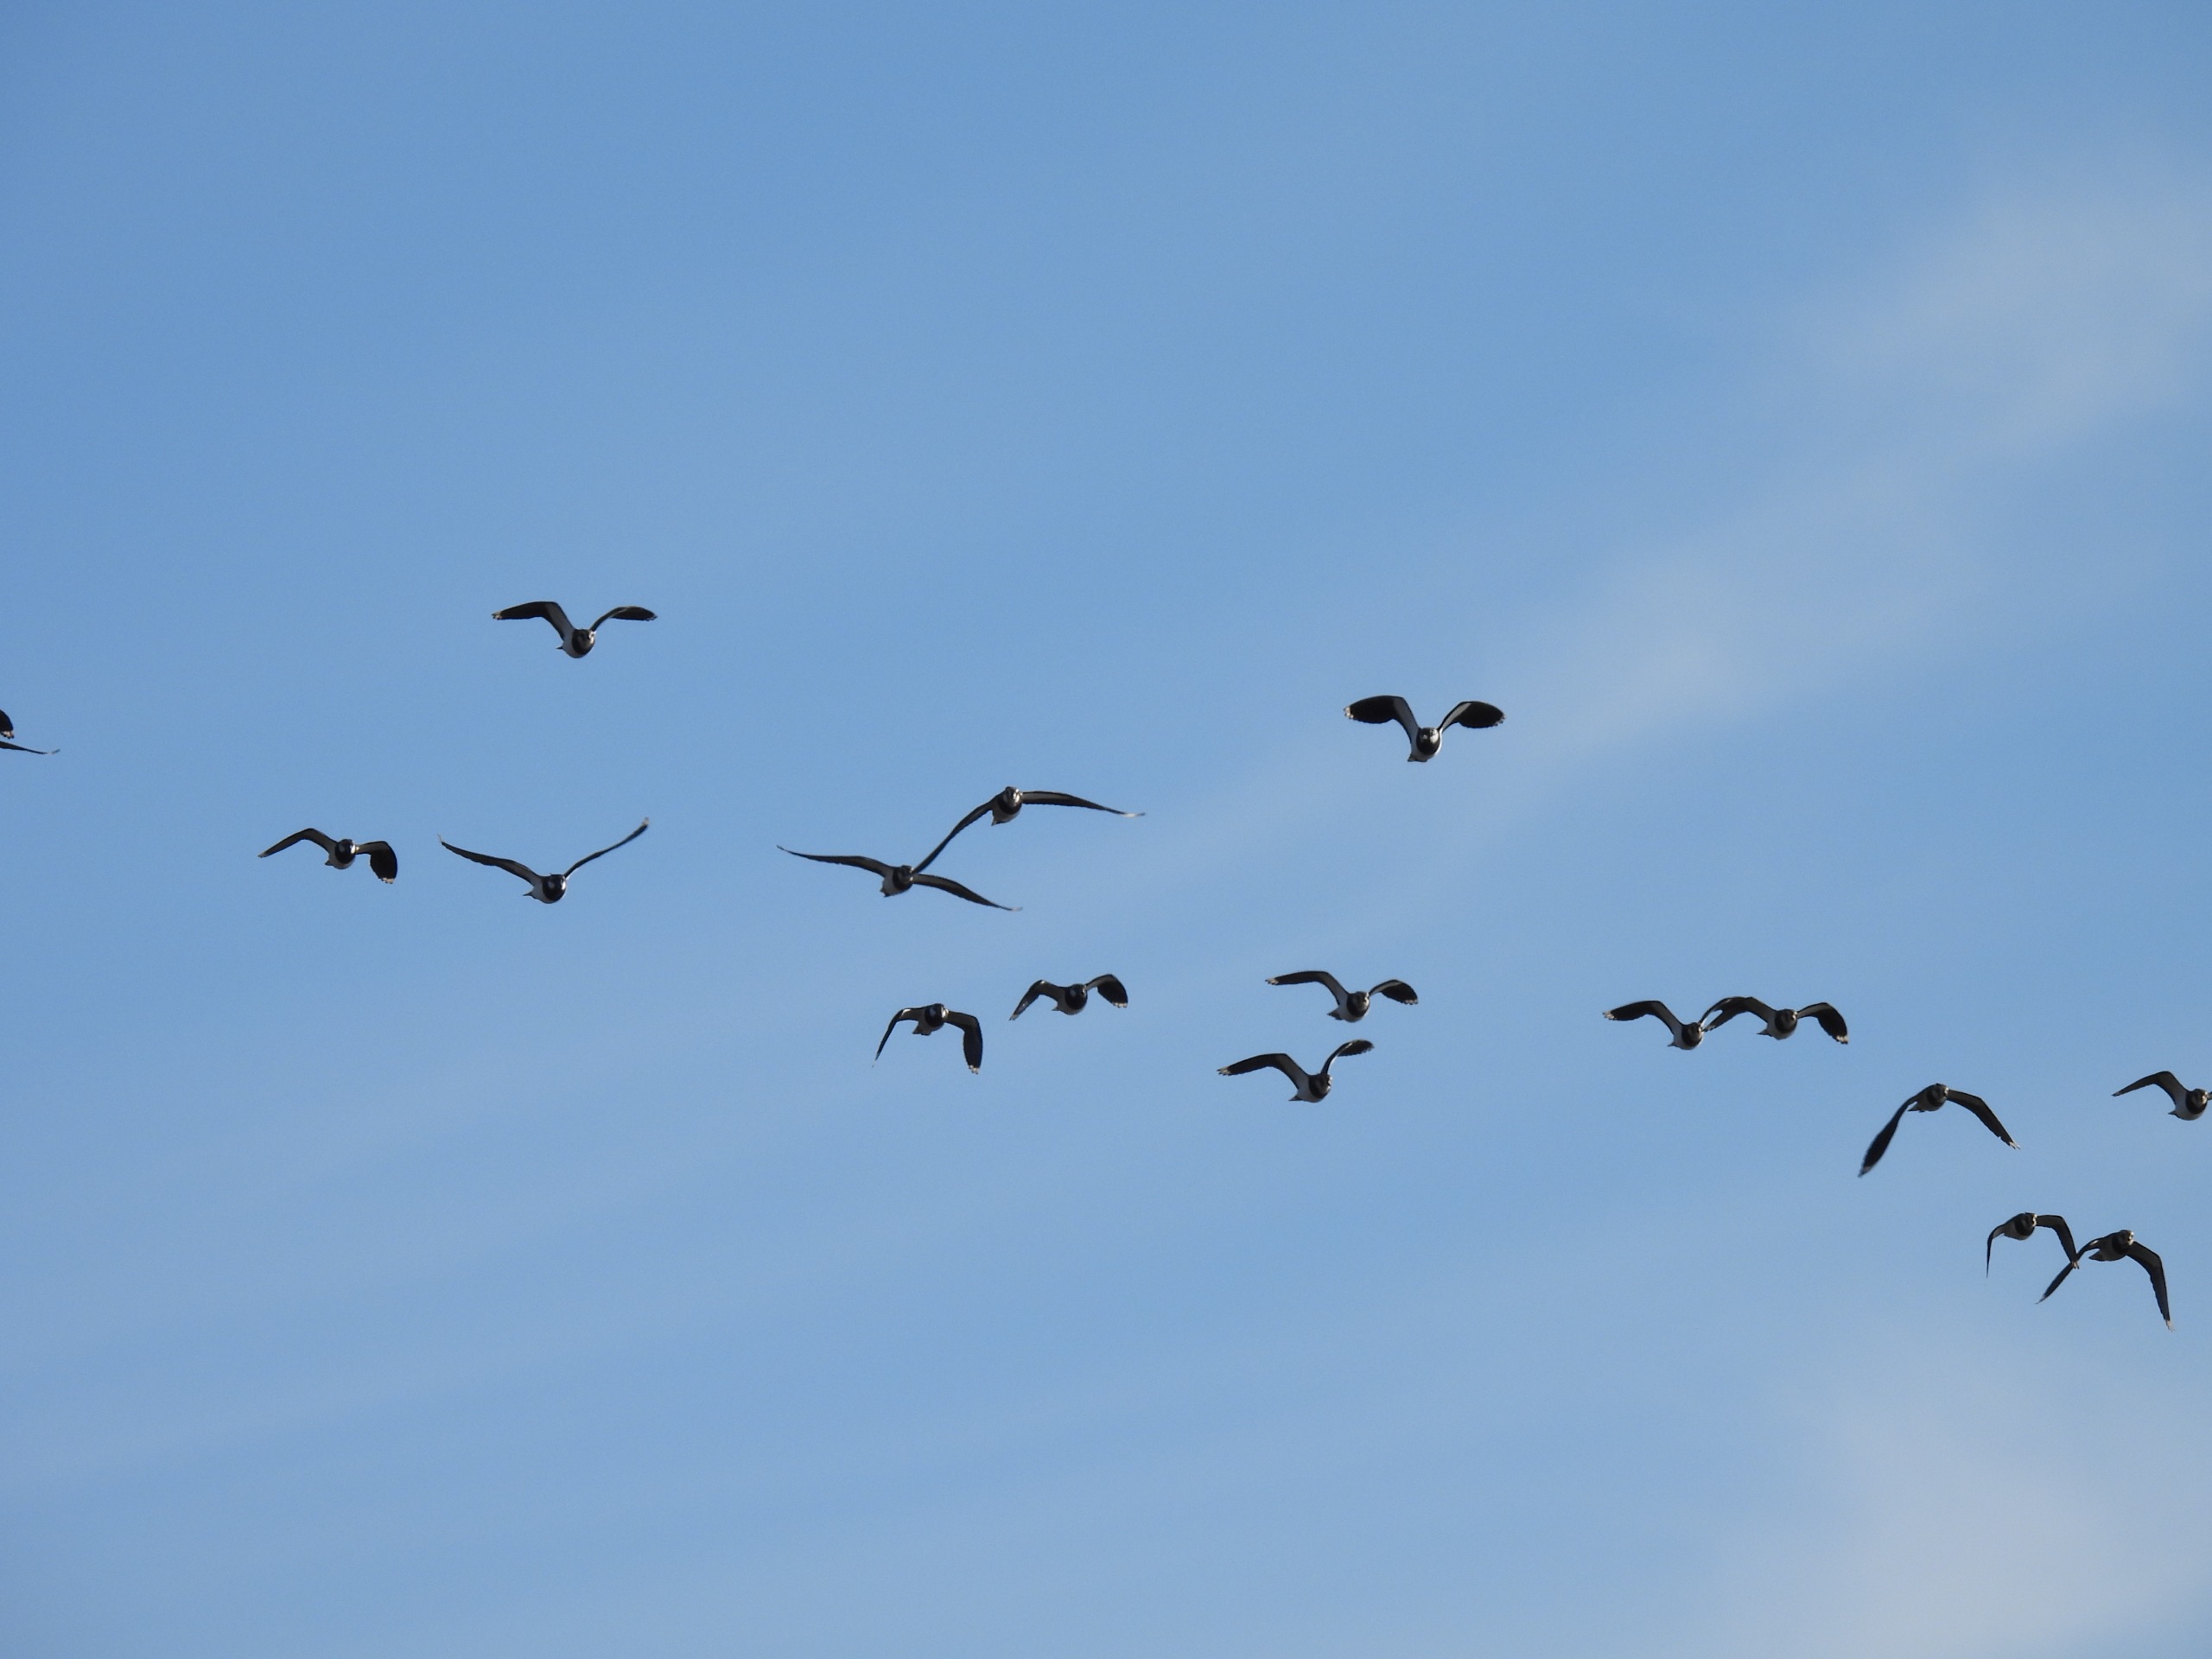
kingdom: Animalia
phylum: Chordata
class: Aves
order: Charadriiformes
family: Charadriidae
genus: Vanellus
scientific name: Vanellus vanellus
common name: Vibe
